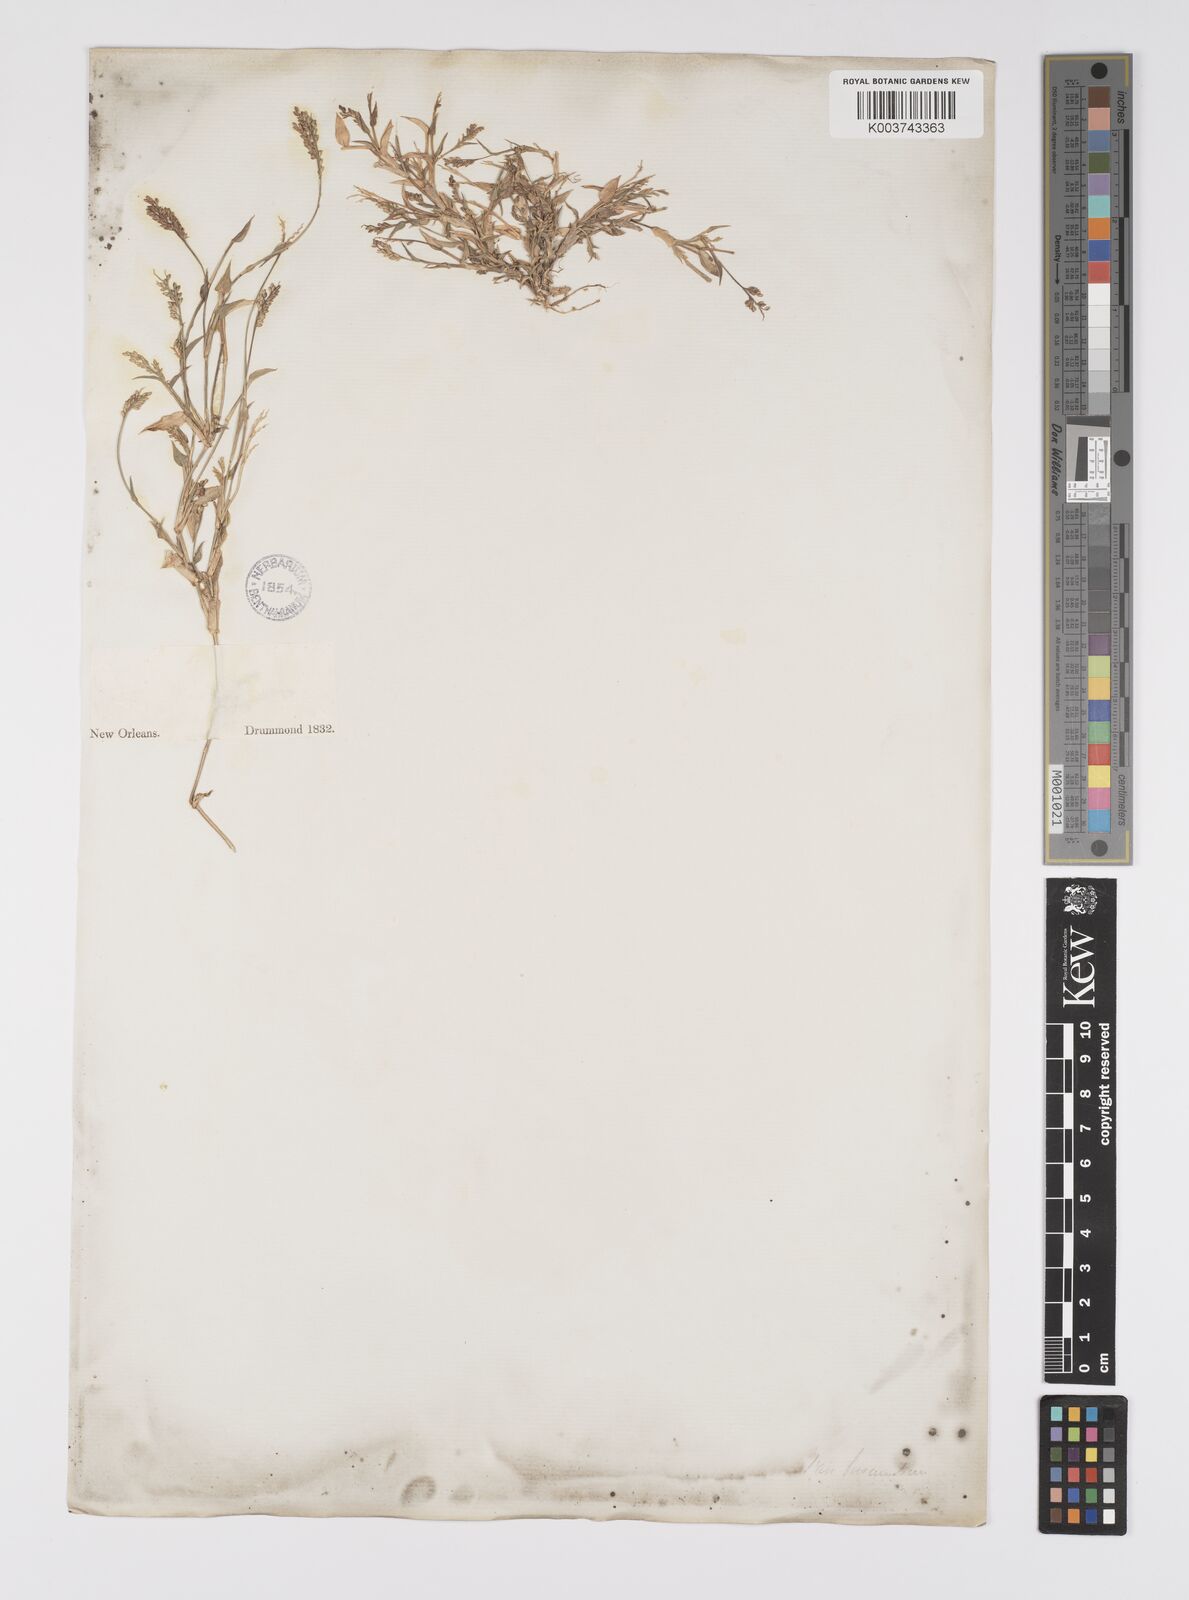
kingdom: Plantae
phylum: Tracheophyta
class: Liliopsida
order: Poales
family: Poaceae
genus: Urochloa
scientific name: Urochloa reptans
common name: Sprawling signalgrass
